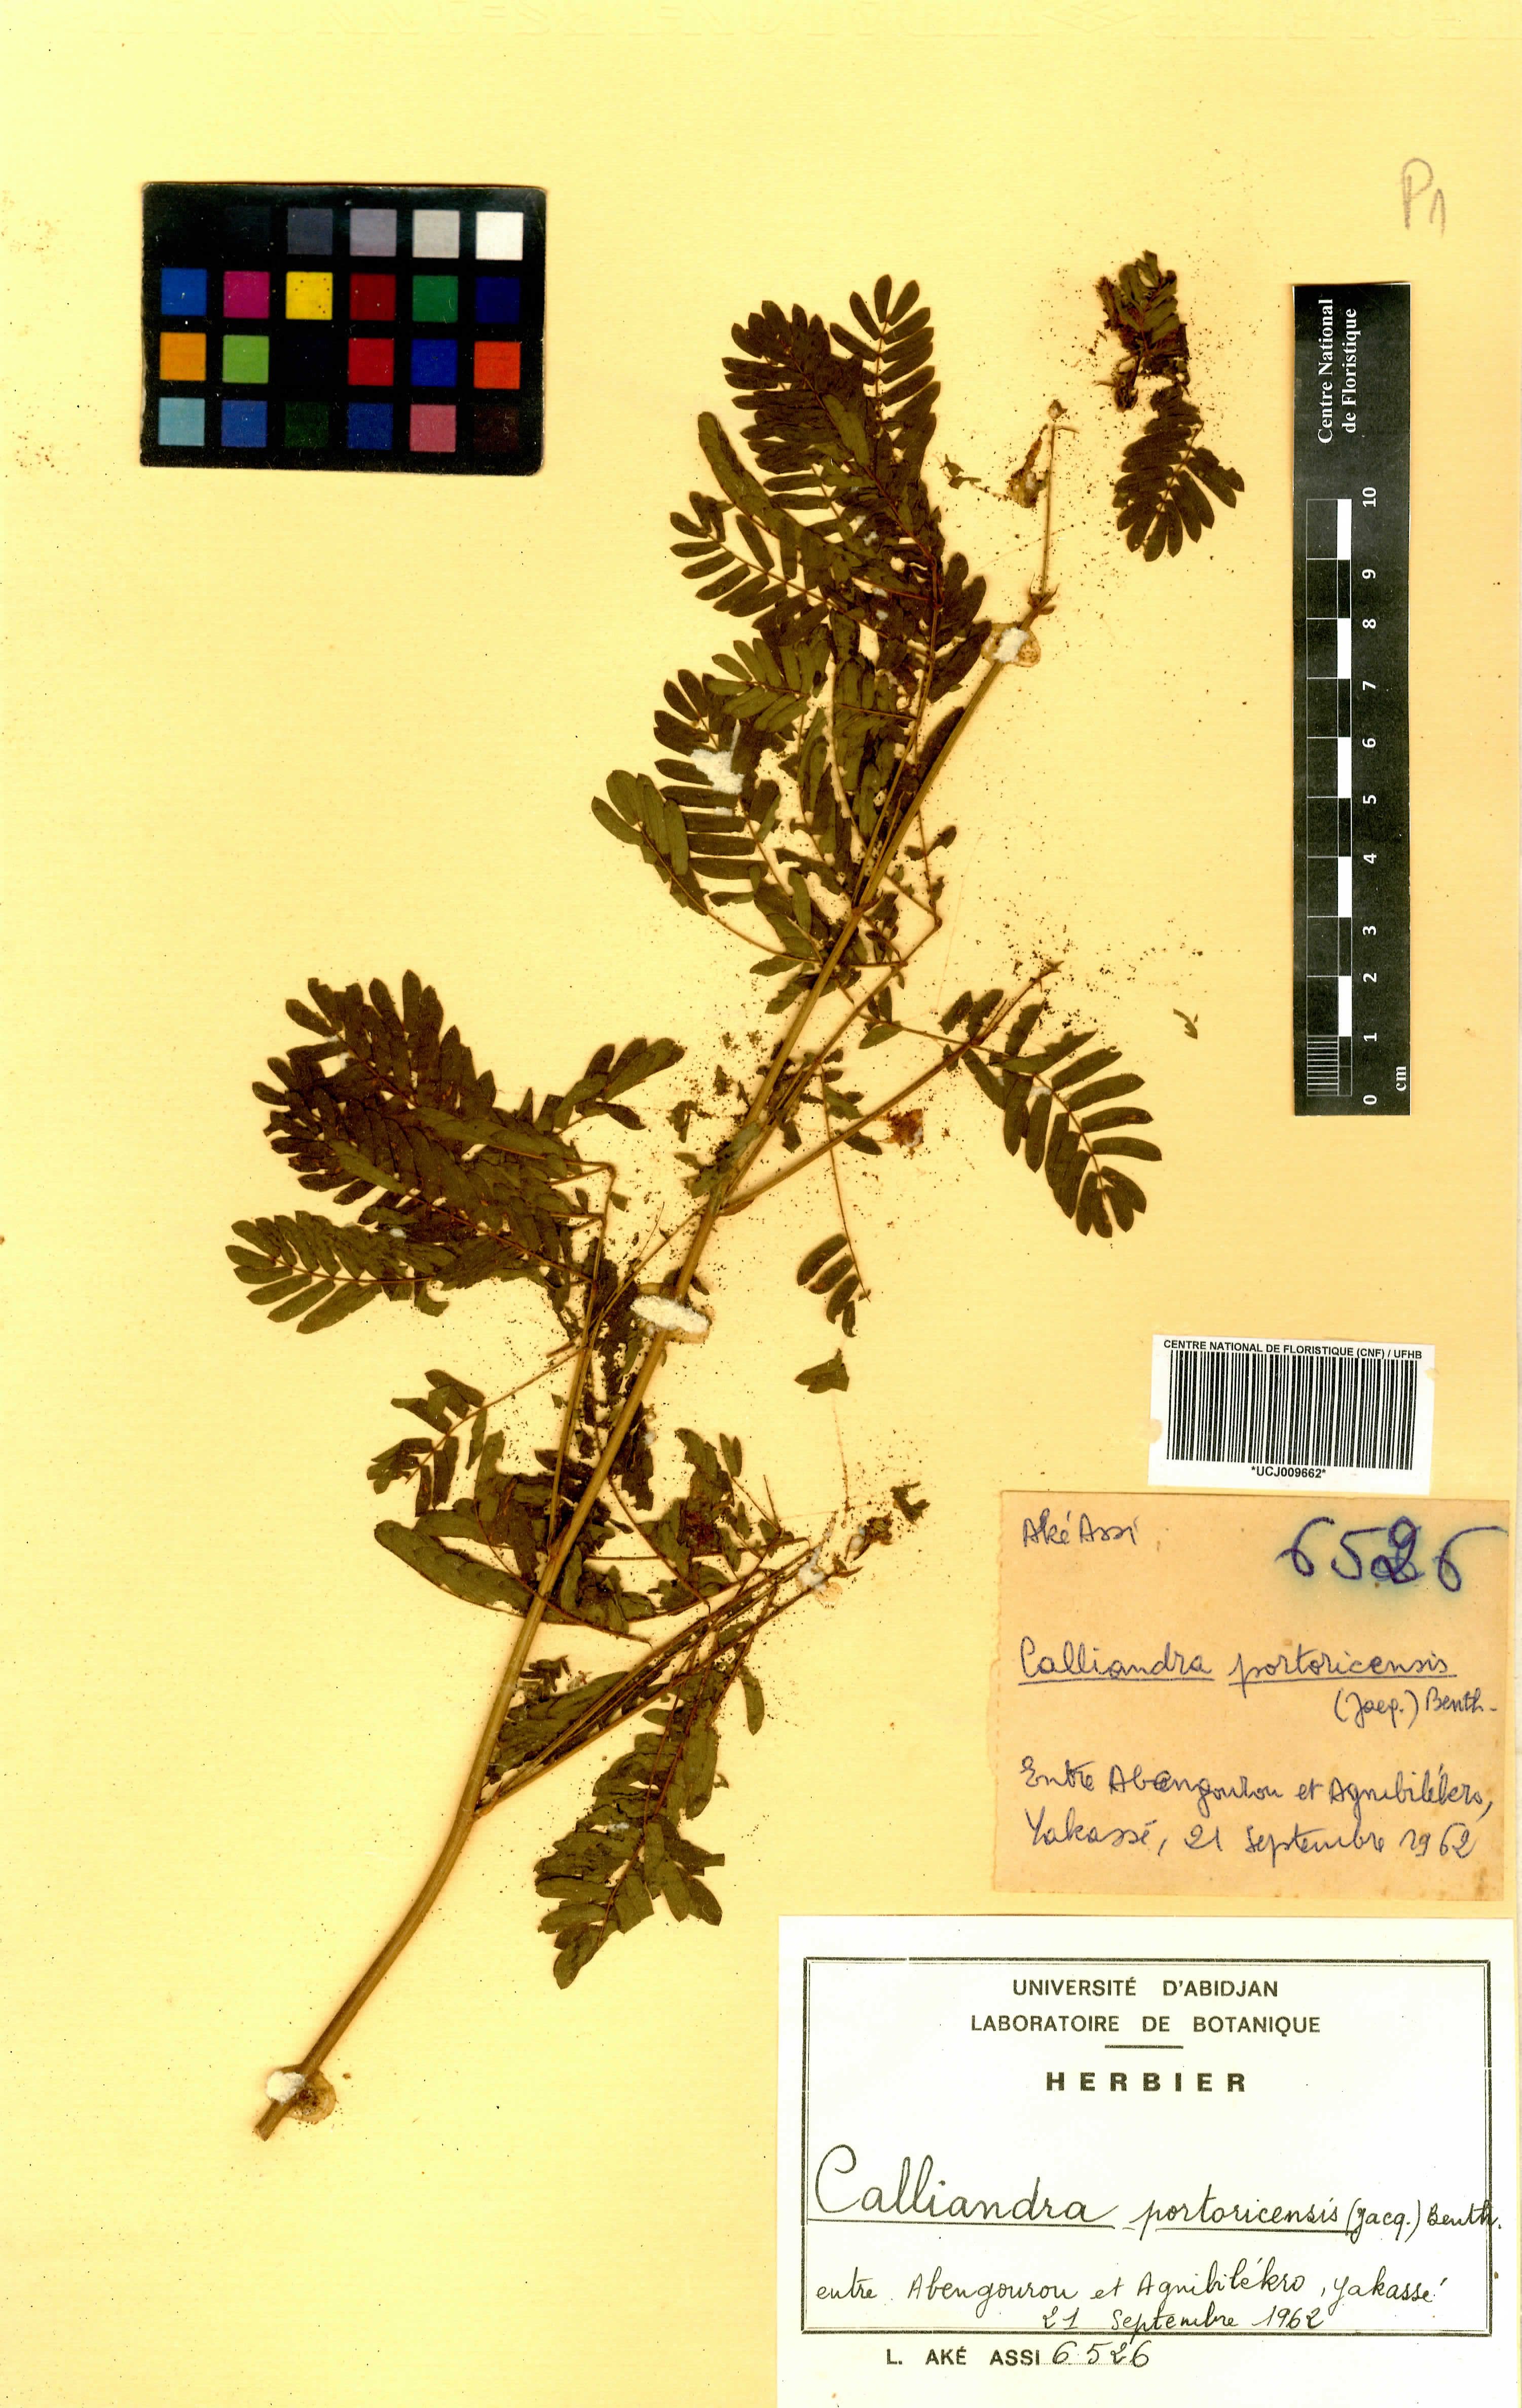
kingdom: Plantae
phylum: Tracheophyta
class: Magnoliopsida
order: Fabales
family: Fabaceae
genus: Zapoteca
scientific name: Zapoteca portoricensis
